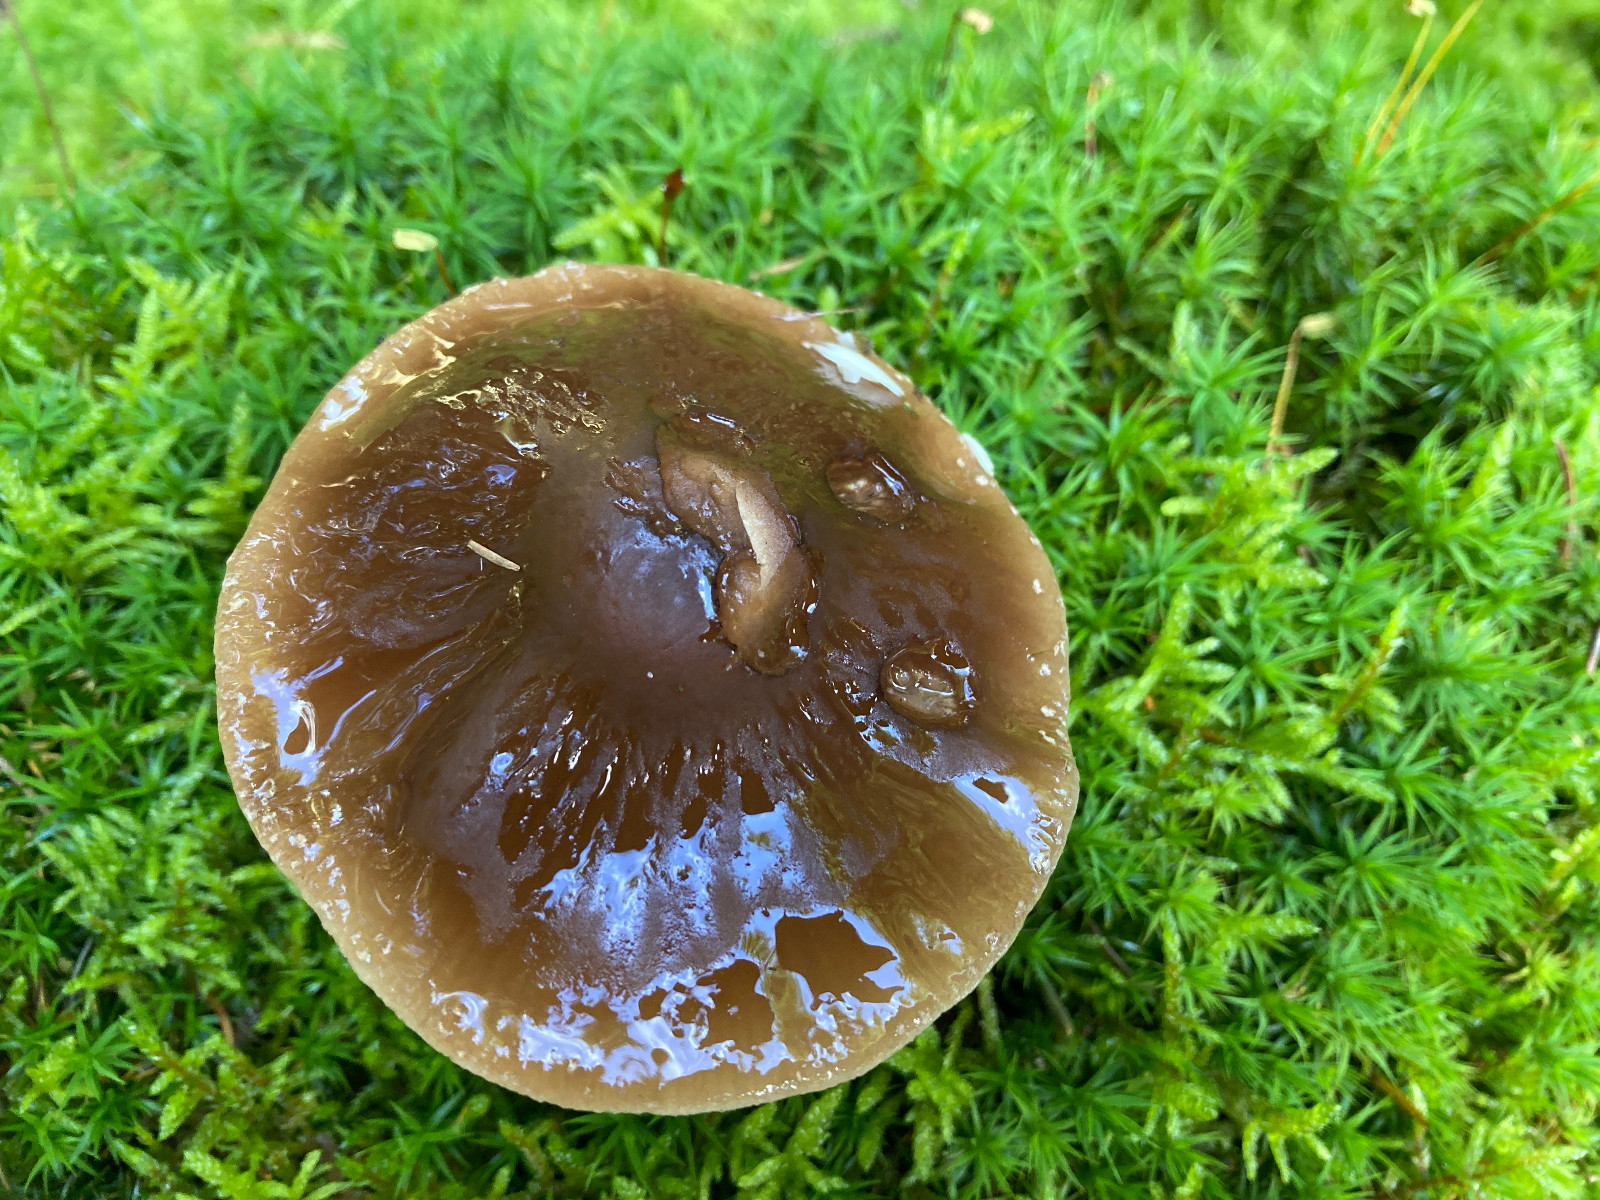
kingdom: Fungi
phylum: Basidiomycota
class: Agaricomycetes
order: Agaricales
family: Tubariaceae
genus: Cyclocybe
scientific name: Cyclocybe erebia
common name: mørk agerhat
